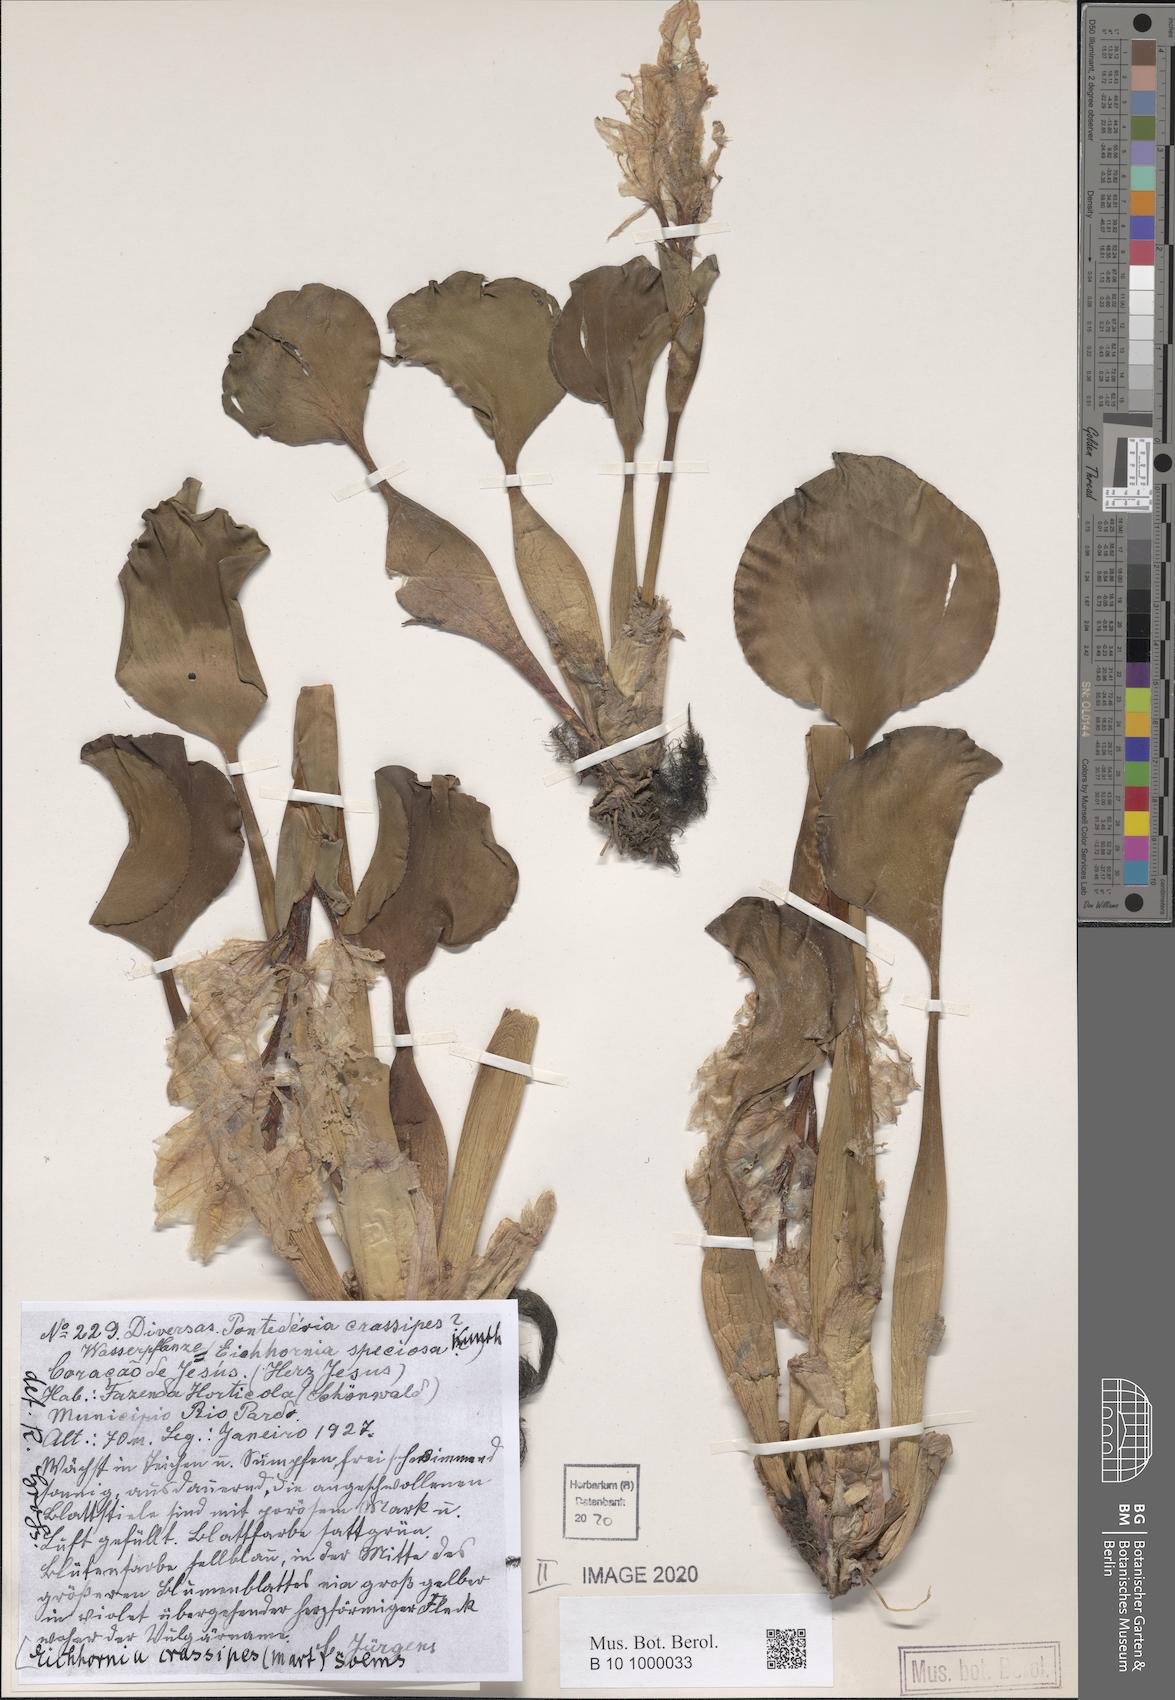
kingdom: Plantae
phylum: Tracheophyta
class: Liliopsida
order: Commelinales
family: Pontederiaceae
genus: Pontederia
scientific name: Pontederia crassipes
